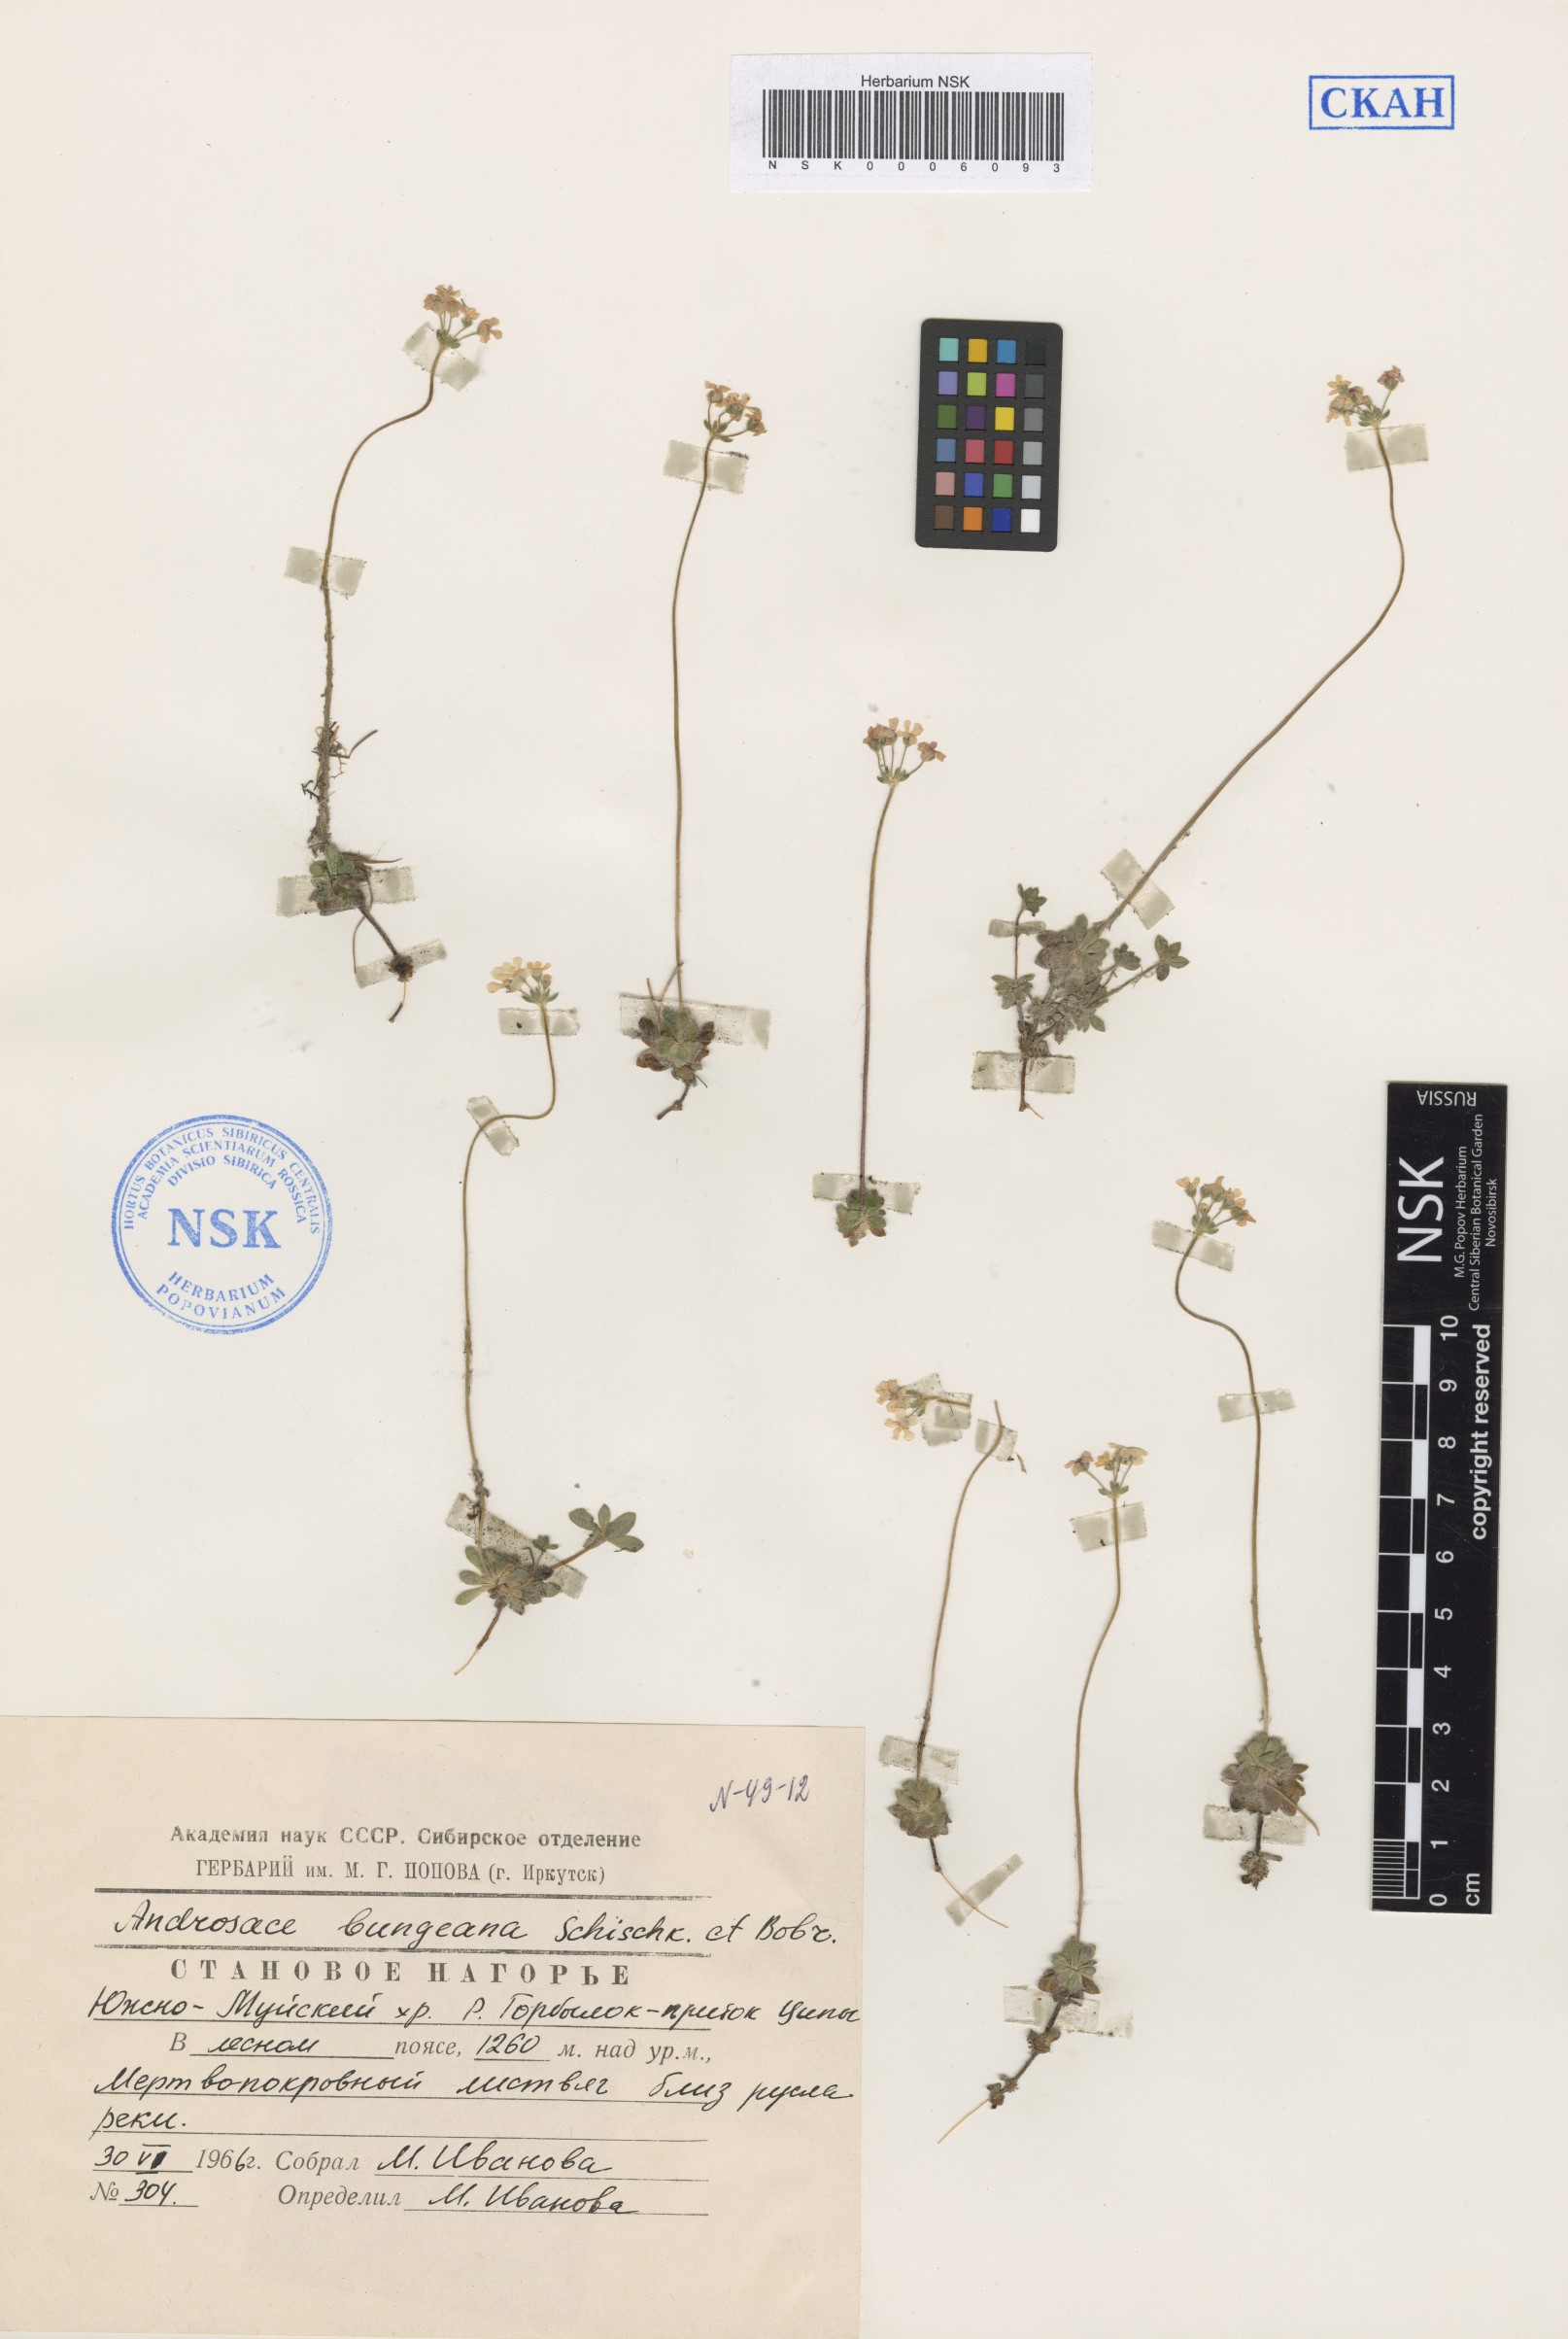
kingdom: Plantae
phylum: Tracheophyta
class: Magnoliopsida
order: Ericales
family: Primulaceae
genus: Androsace
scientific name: Androsace bungeana
